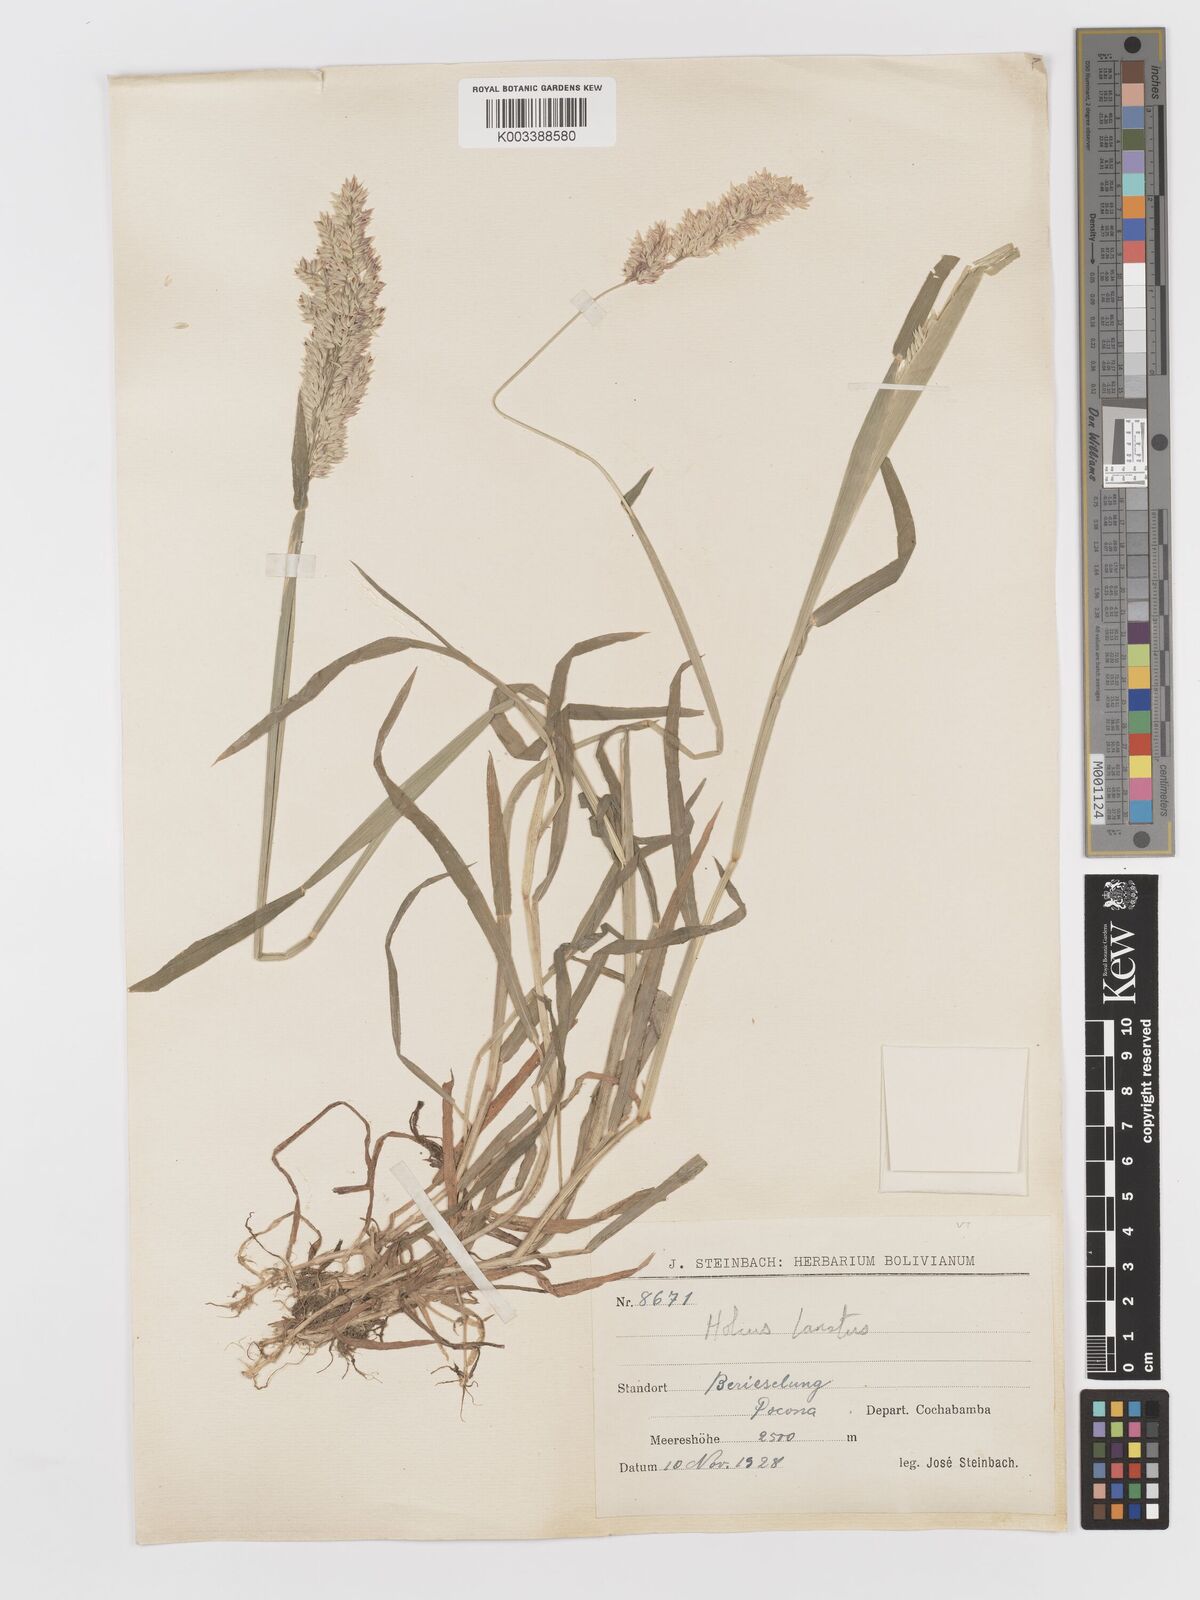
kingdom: Plantae
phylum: Tracheophyta
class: Liliopsida
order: Poales
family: Poaceae
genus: Holcus
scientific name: Holcus lanatus
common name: Yorkshire-fog
